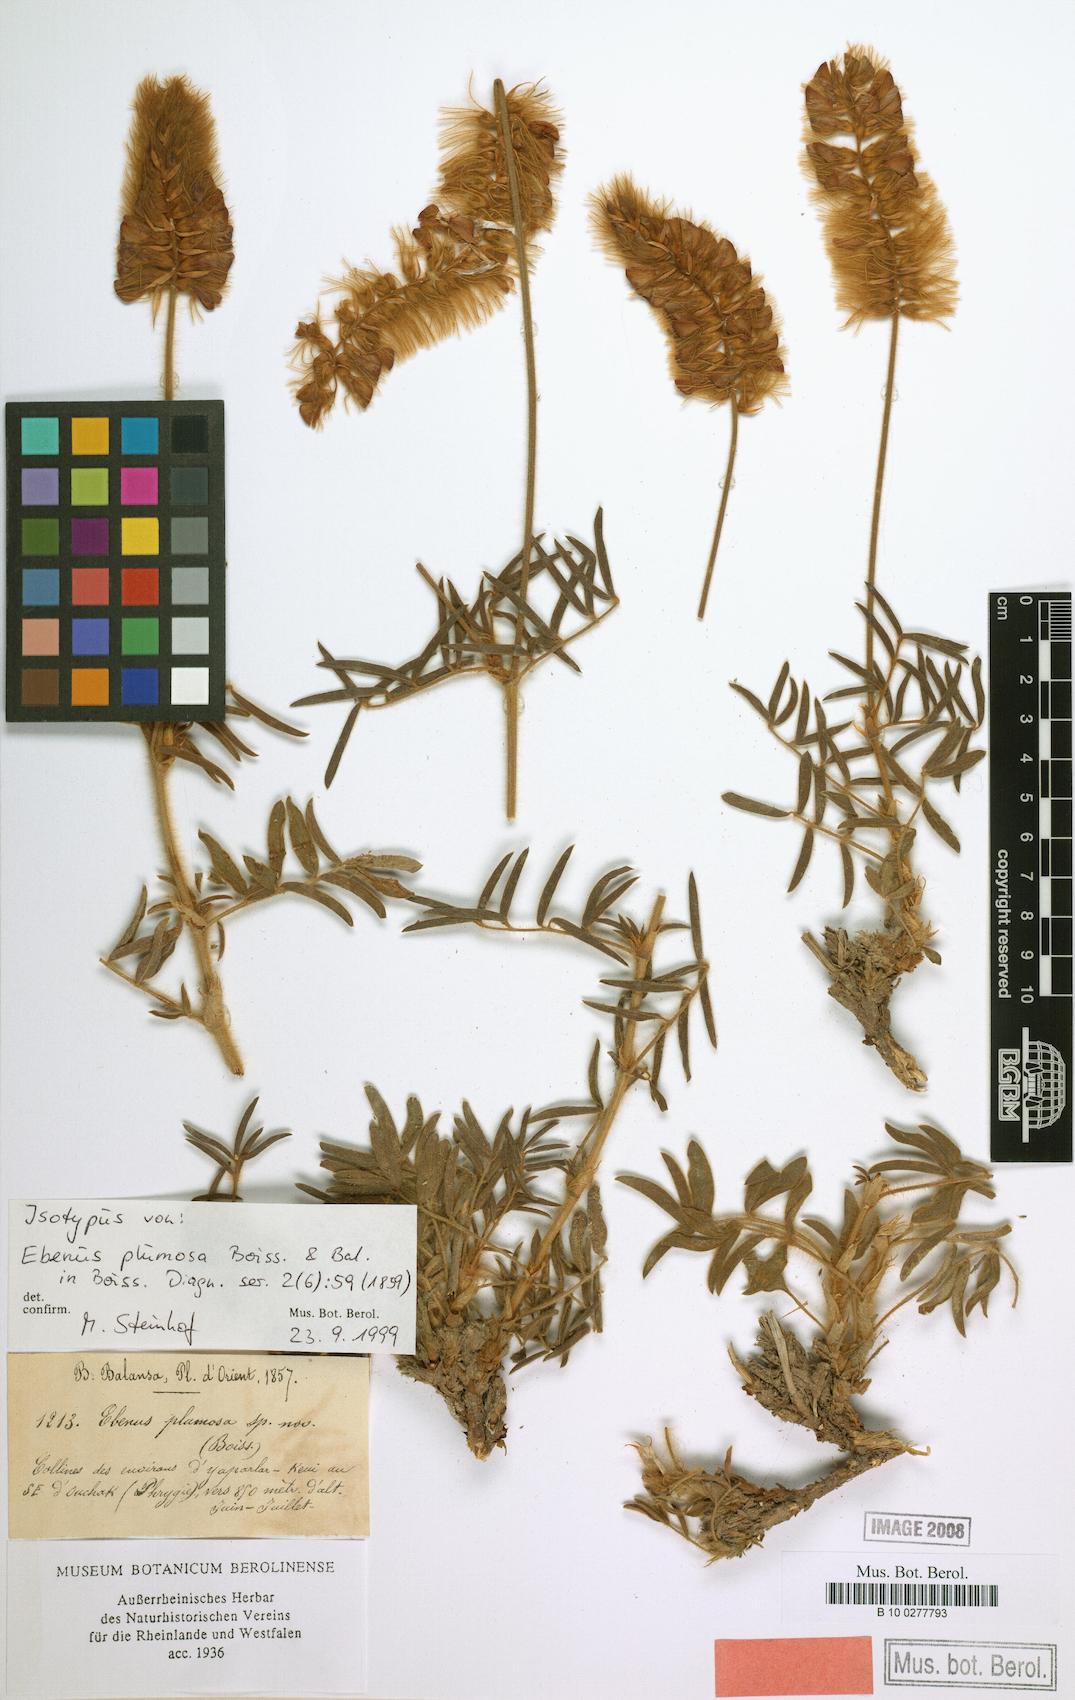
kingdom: Plantae
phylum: Tracheophyta
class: Magnoliopsida
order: Fabales
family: Fabaceae
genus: Ebenus
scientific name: Ebenus plumosa
